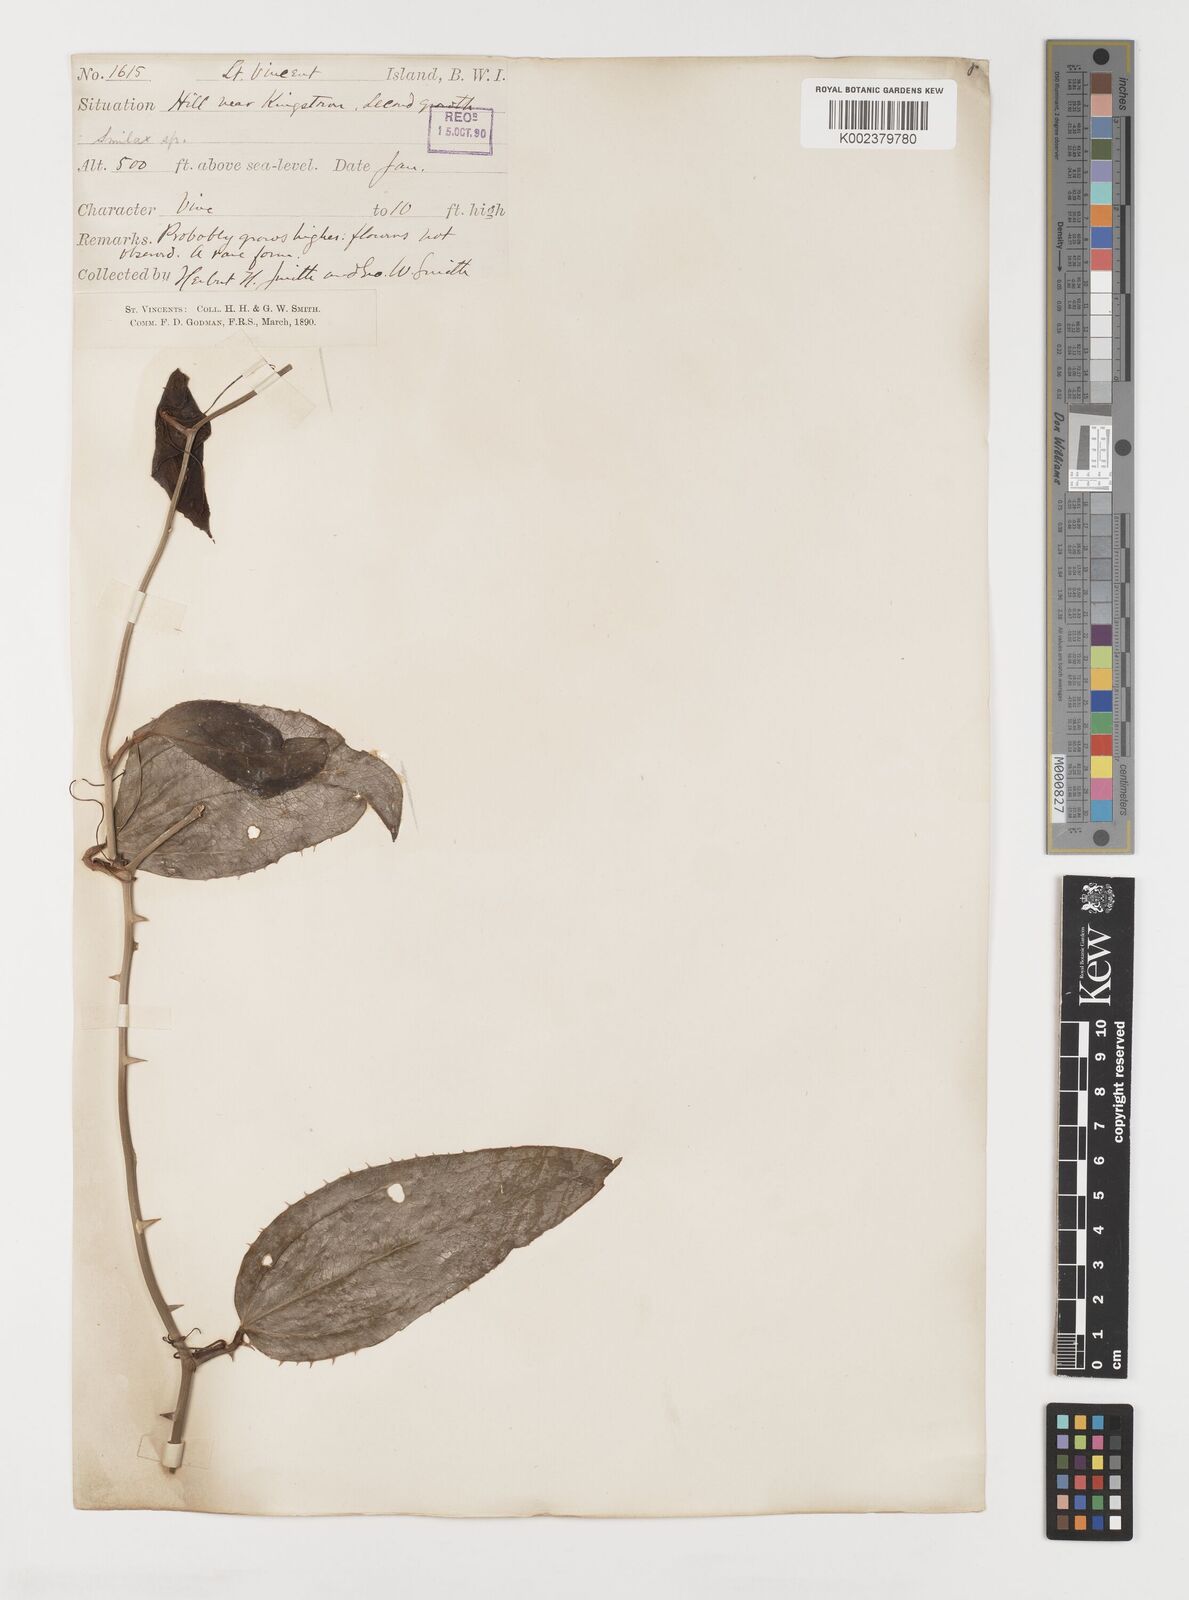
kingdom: Plantae
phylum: Tracheophyta
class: Liliopsida
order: Liliales
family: Smilacaceae
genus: Smilax
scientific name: Smilax oblongata
